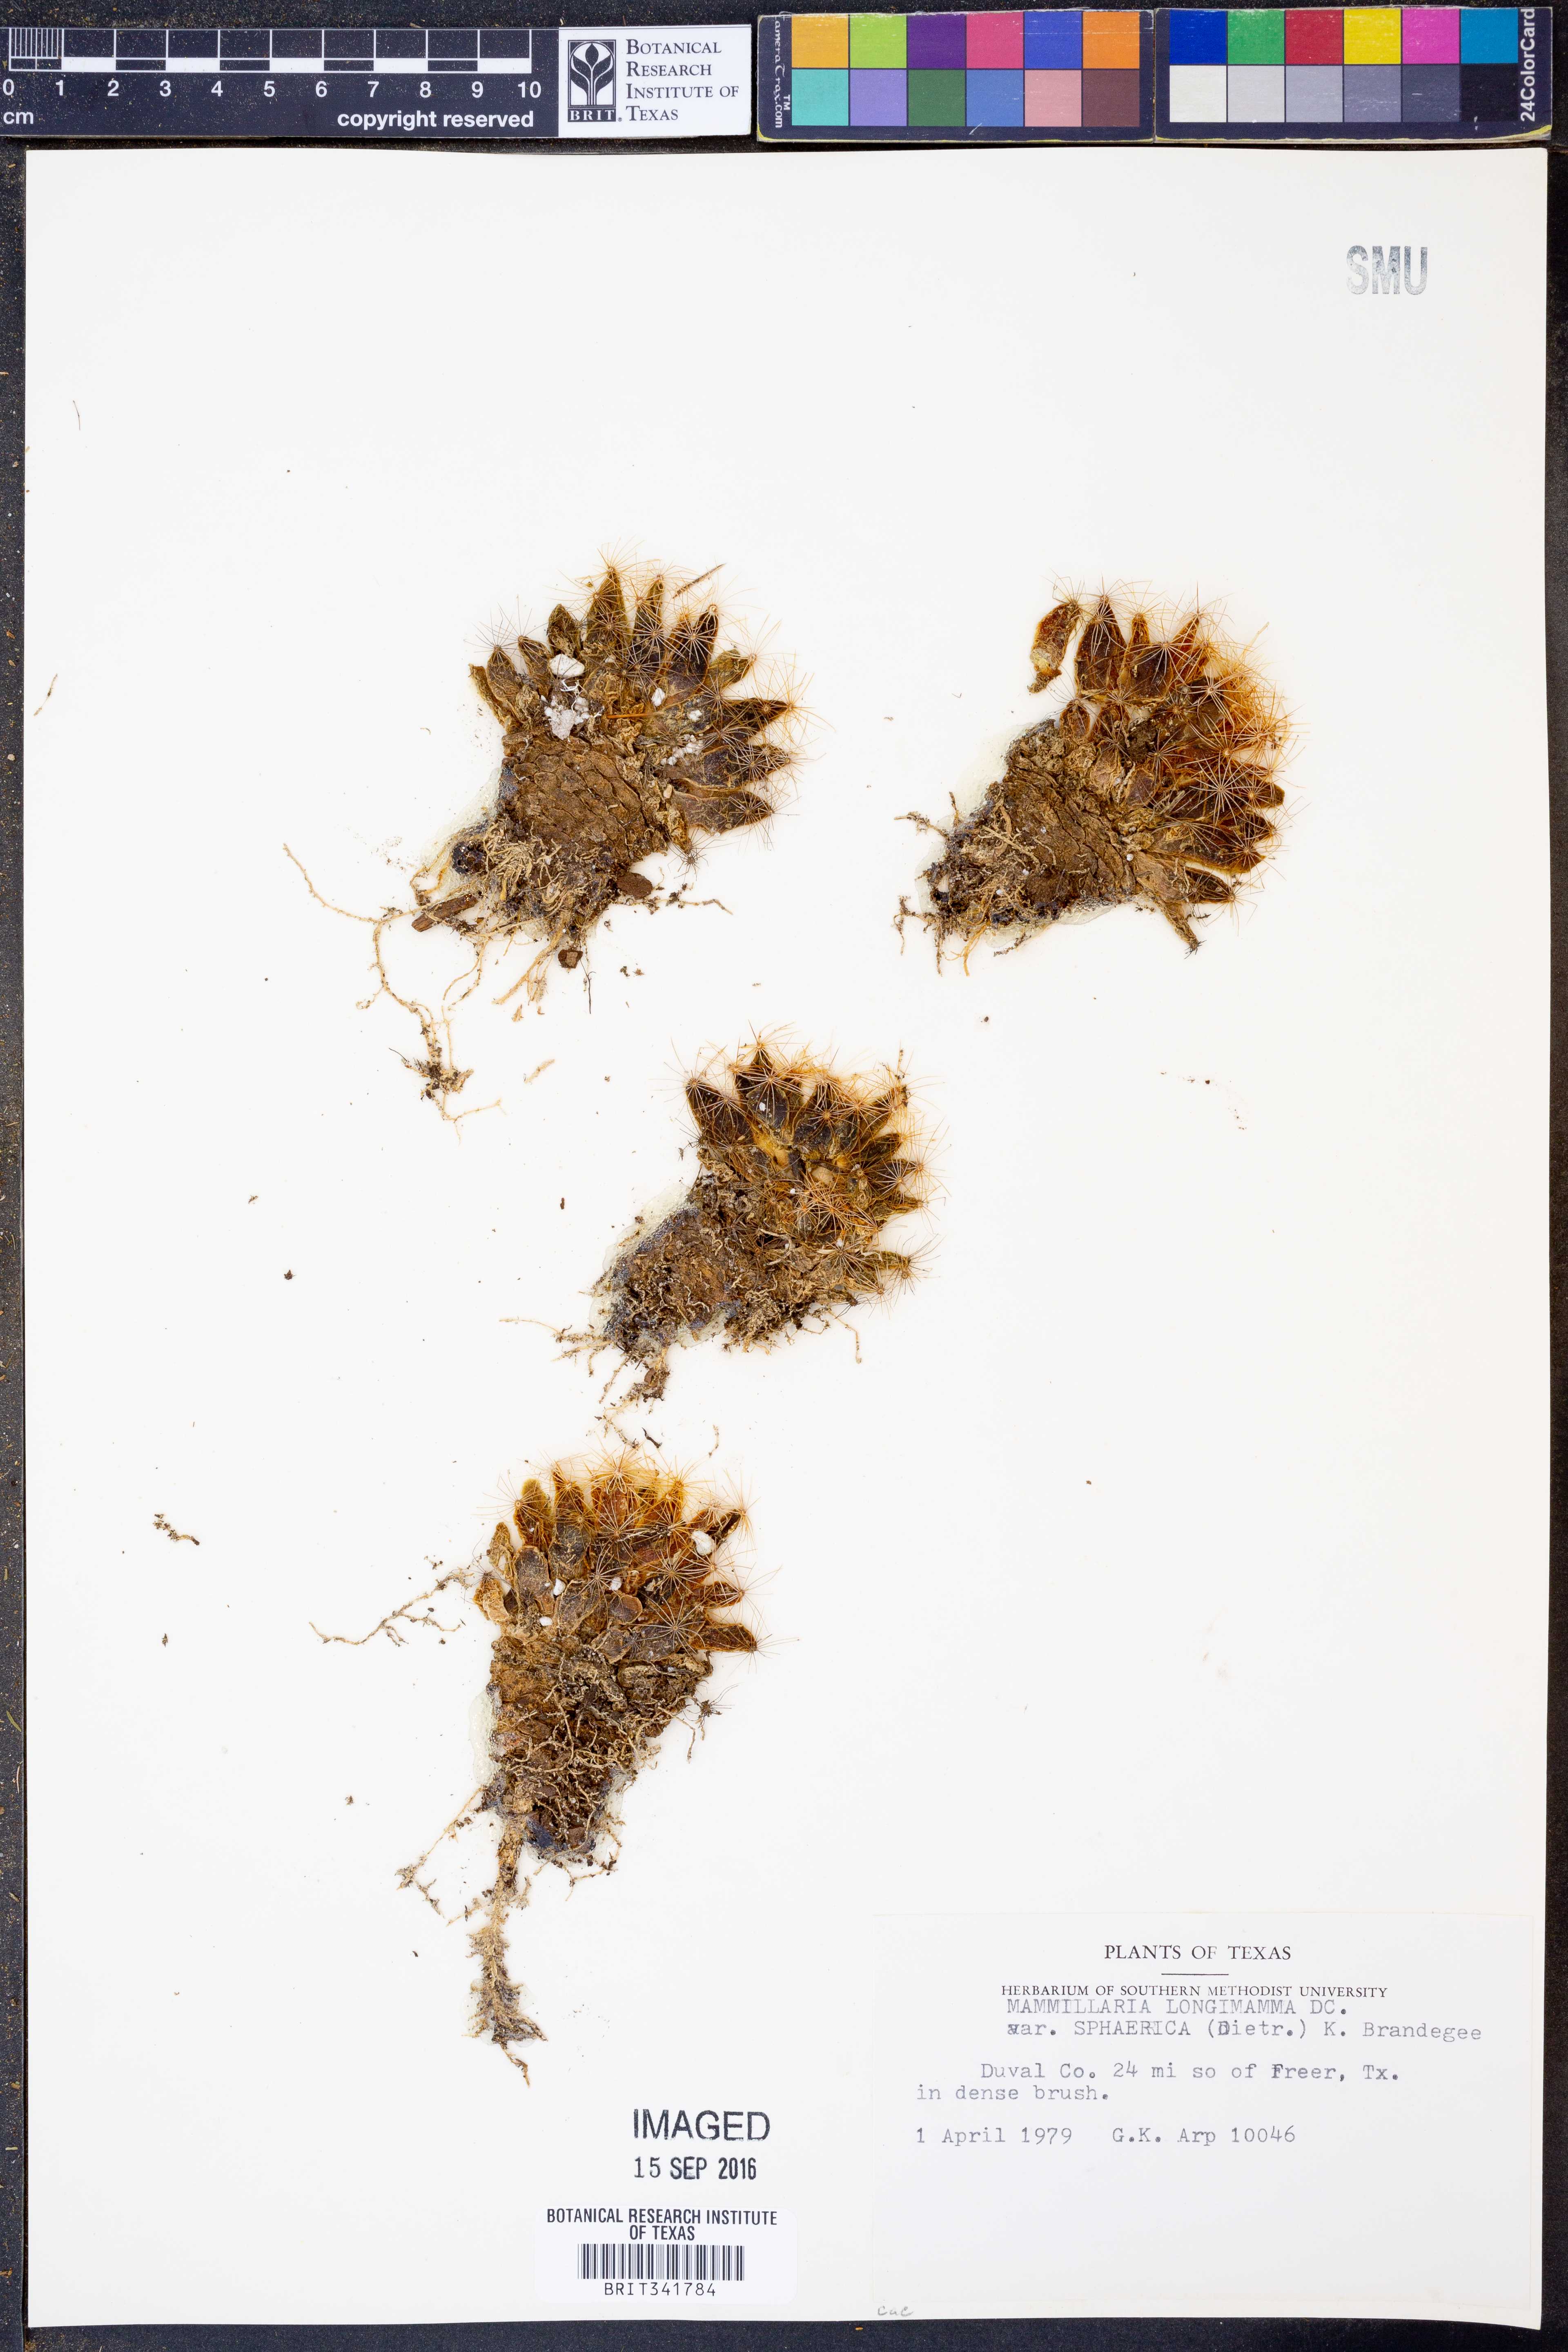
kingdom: Plantae
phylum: Tracheophyta
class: Magnoliopsida
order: Caryophyllales
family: Cactaceae
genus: Mammillaria
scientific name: Mammillaria sphaerica
